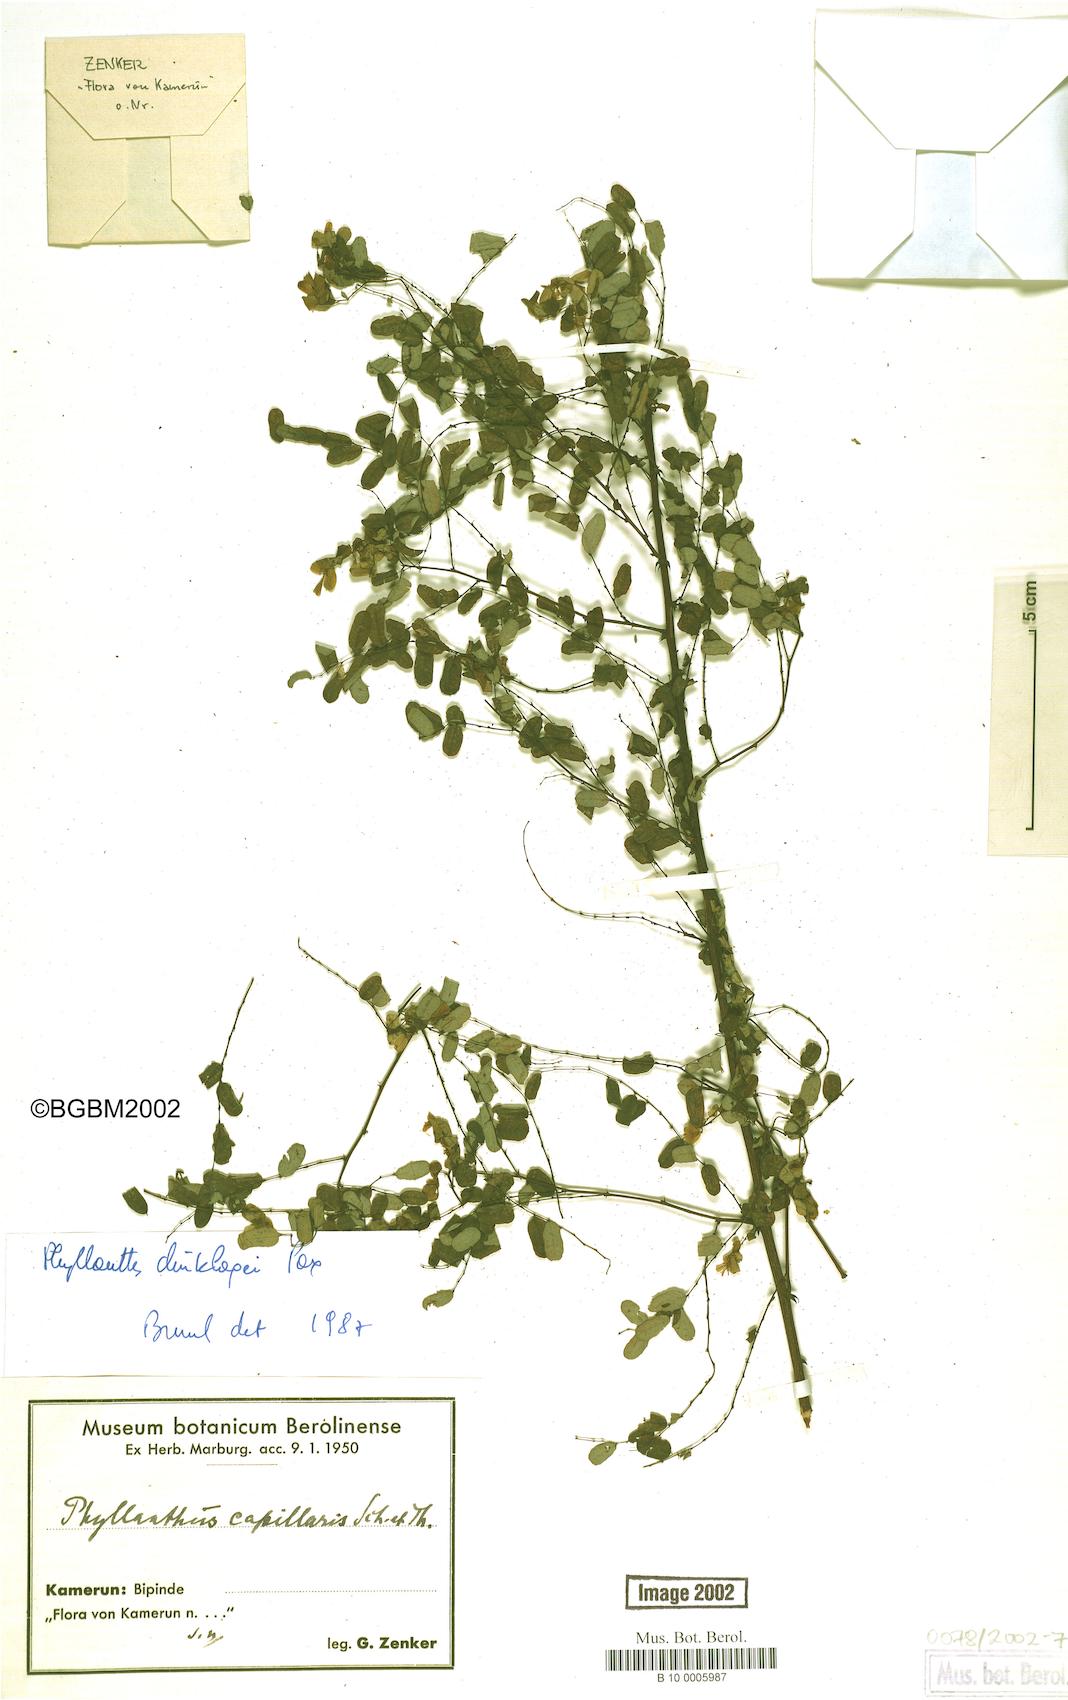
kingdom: Plantae
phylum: Tracheophyta
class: Magnoliopsida
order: Malpighiales
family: Phyllanthaceae
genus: Phyllanthus
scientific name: Phyllanthus dinklagei
